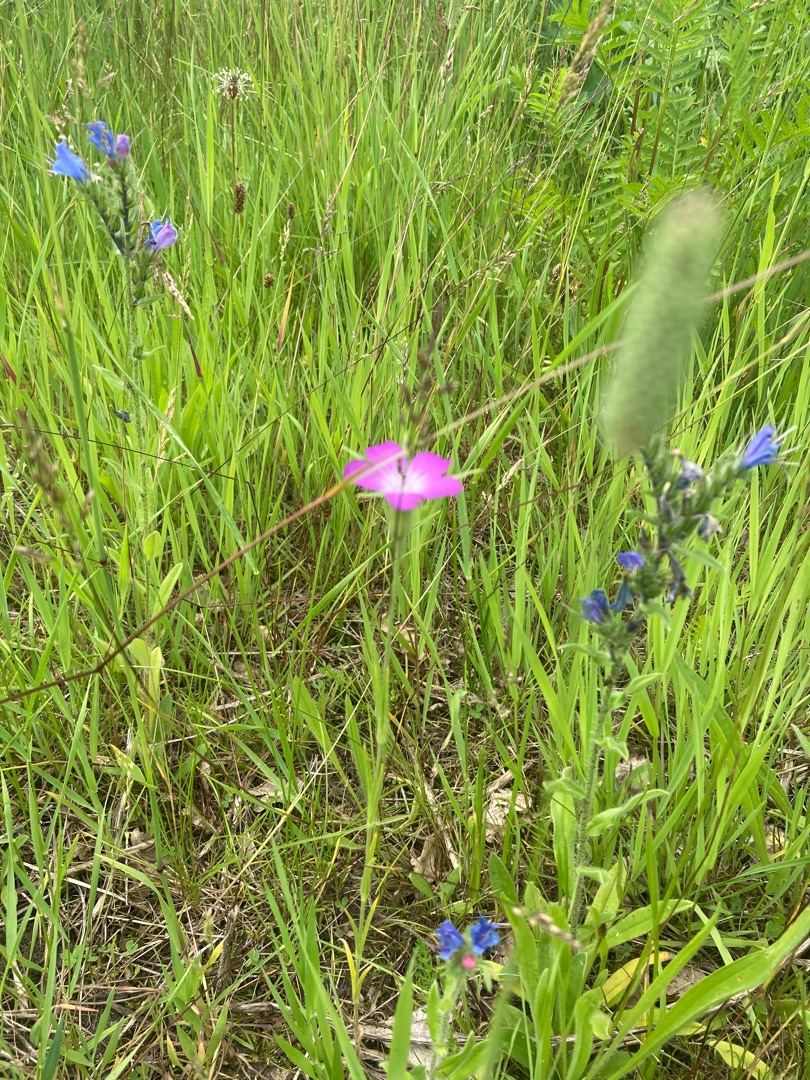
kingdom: Plantae
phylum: Tracheophyta
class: Magnoliopsida
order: Caryophyllales
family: Caryophyllaceae
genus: Agrostemma
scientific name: Agrostemma githago
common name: Klinte
